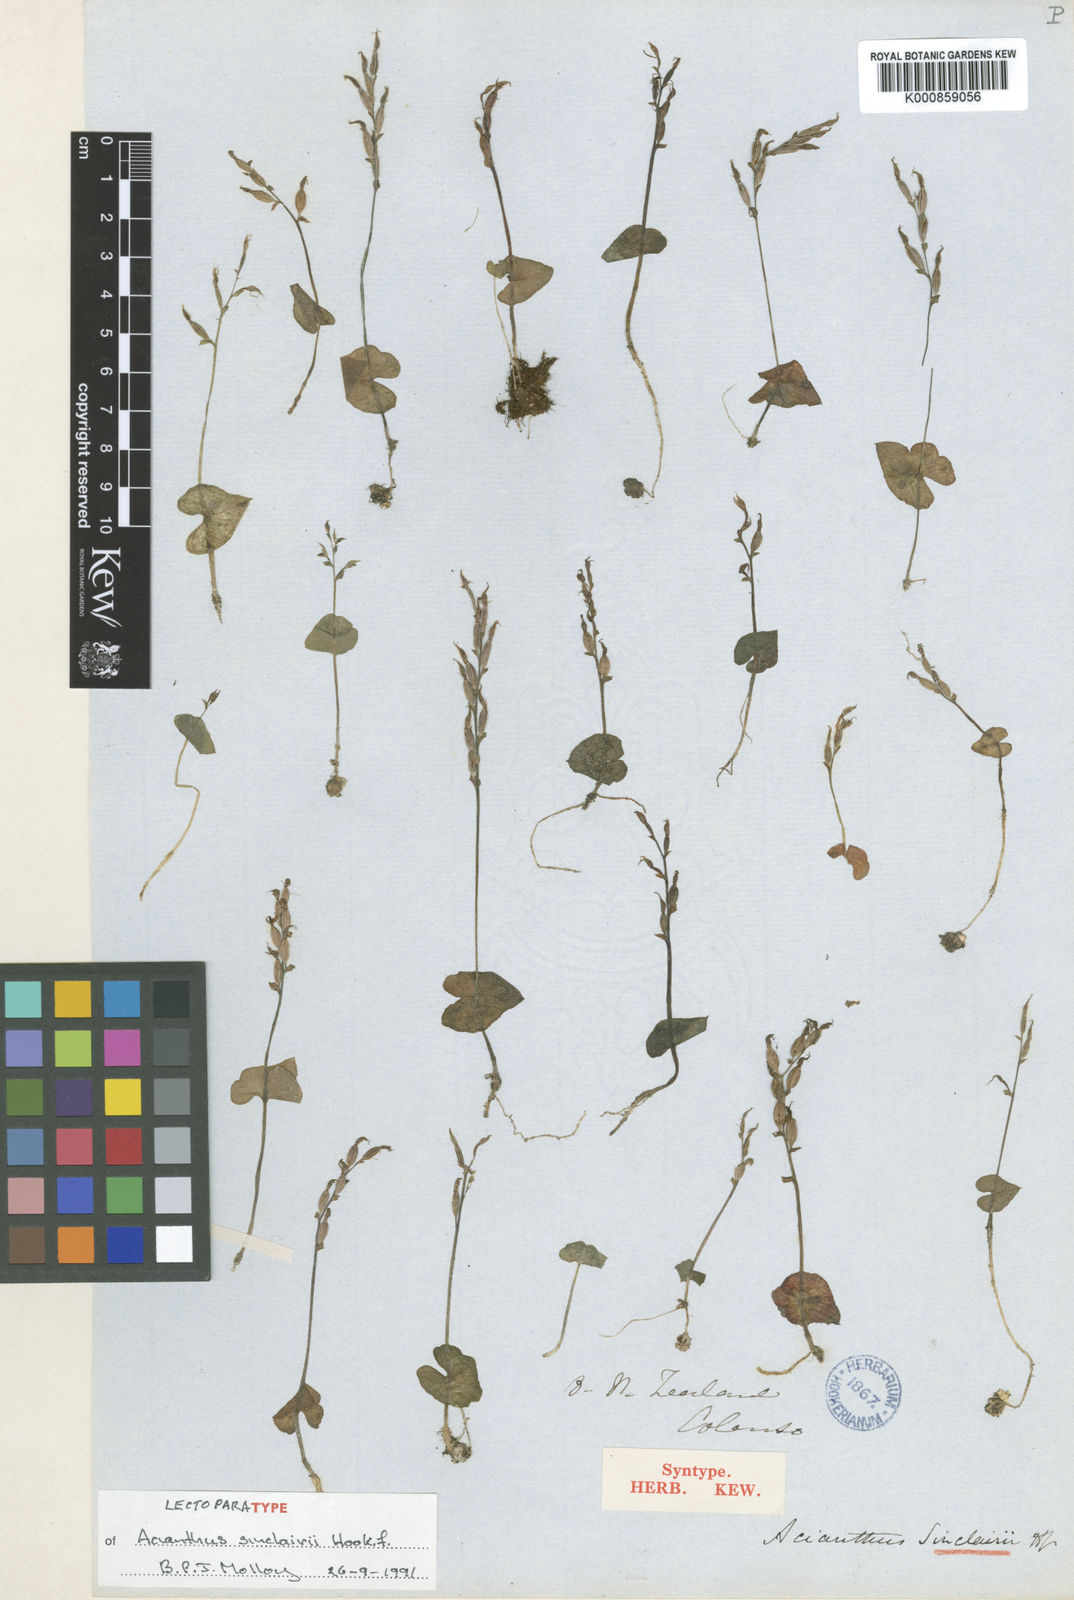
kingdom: Plantae
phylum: Tracheophyta
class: Liliopsida
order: Asparagales
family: Orchidaceae
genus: Acianthus
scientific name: Acianthus sinclairii
